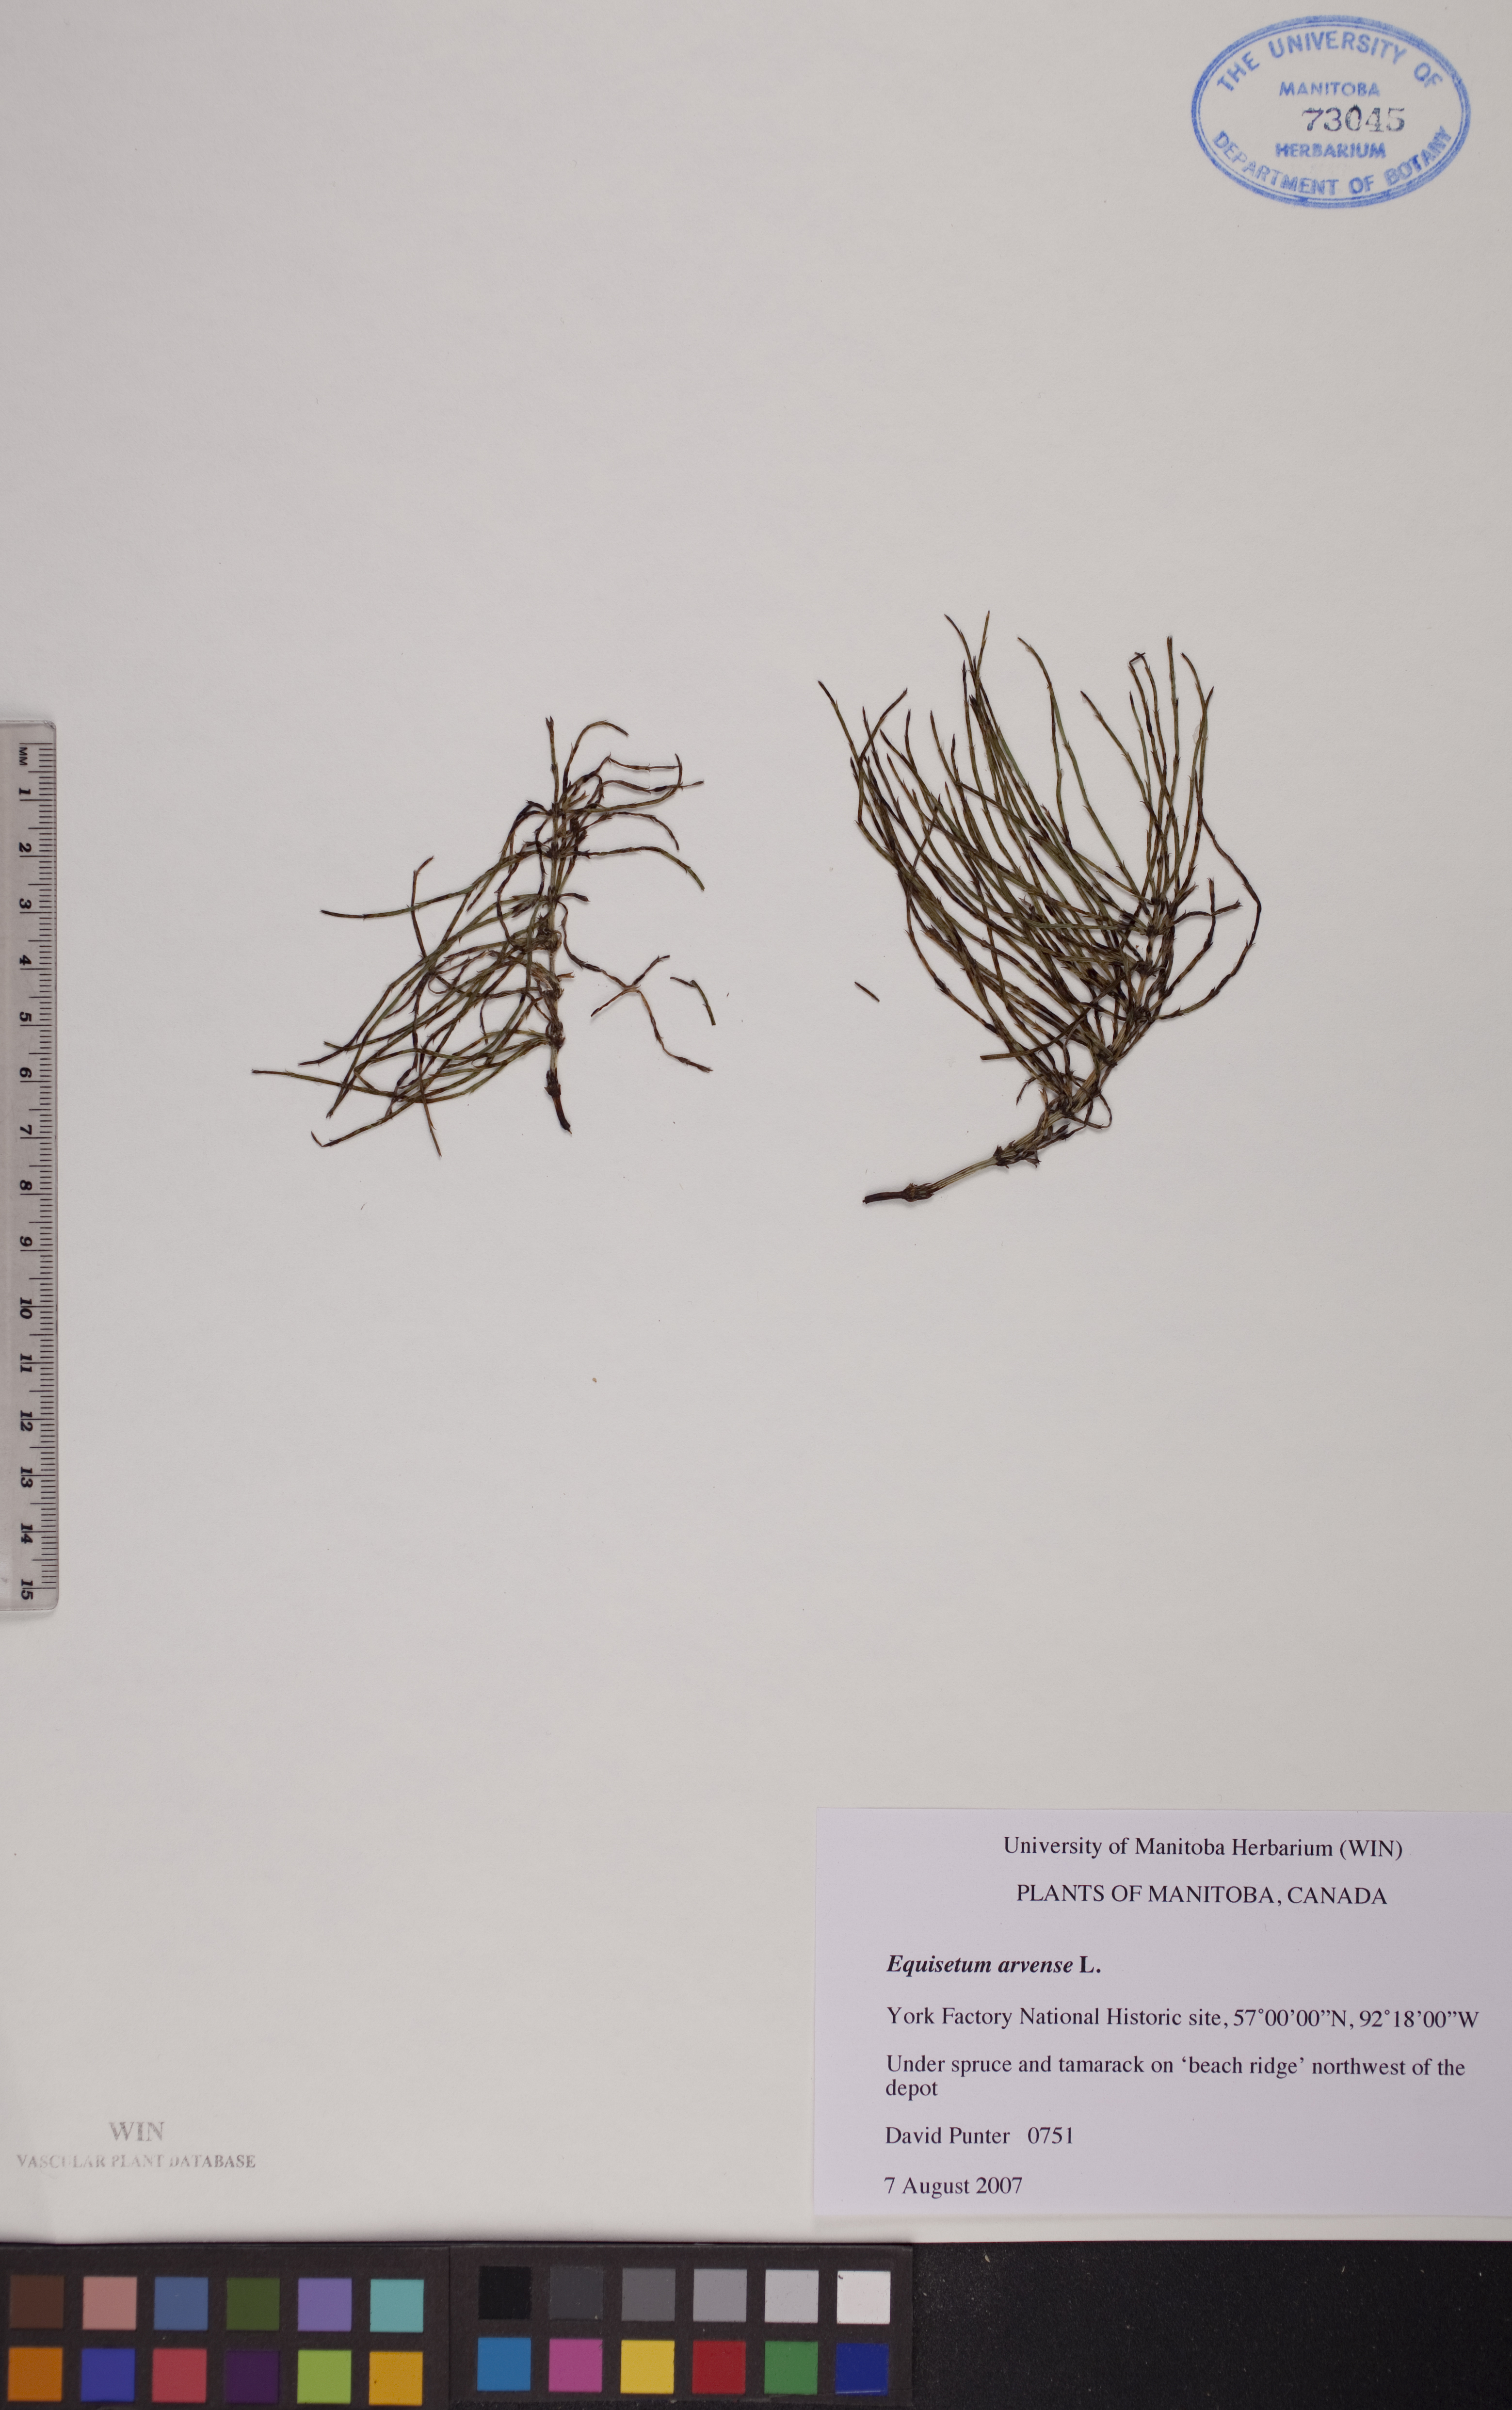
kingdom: Plantae
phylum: Tracheophyta
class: Polypodiopsida
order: Equisetales
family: Equisetaceae
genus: Equisetum
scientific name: Equisetum arvense
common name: Field horsetail
